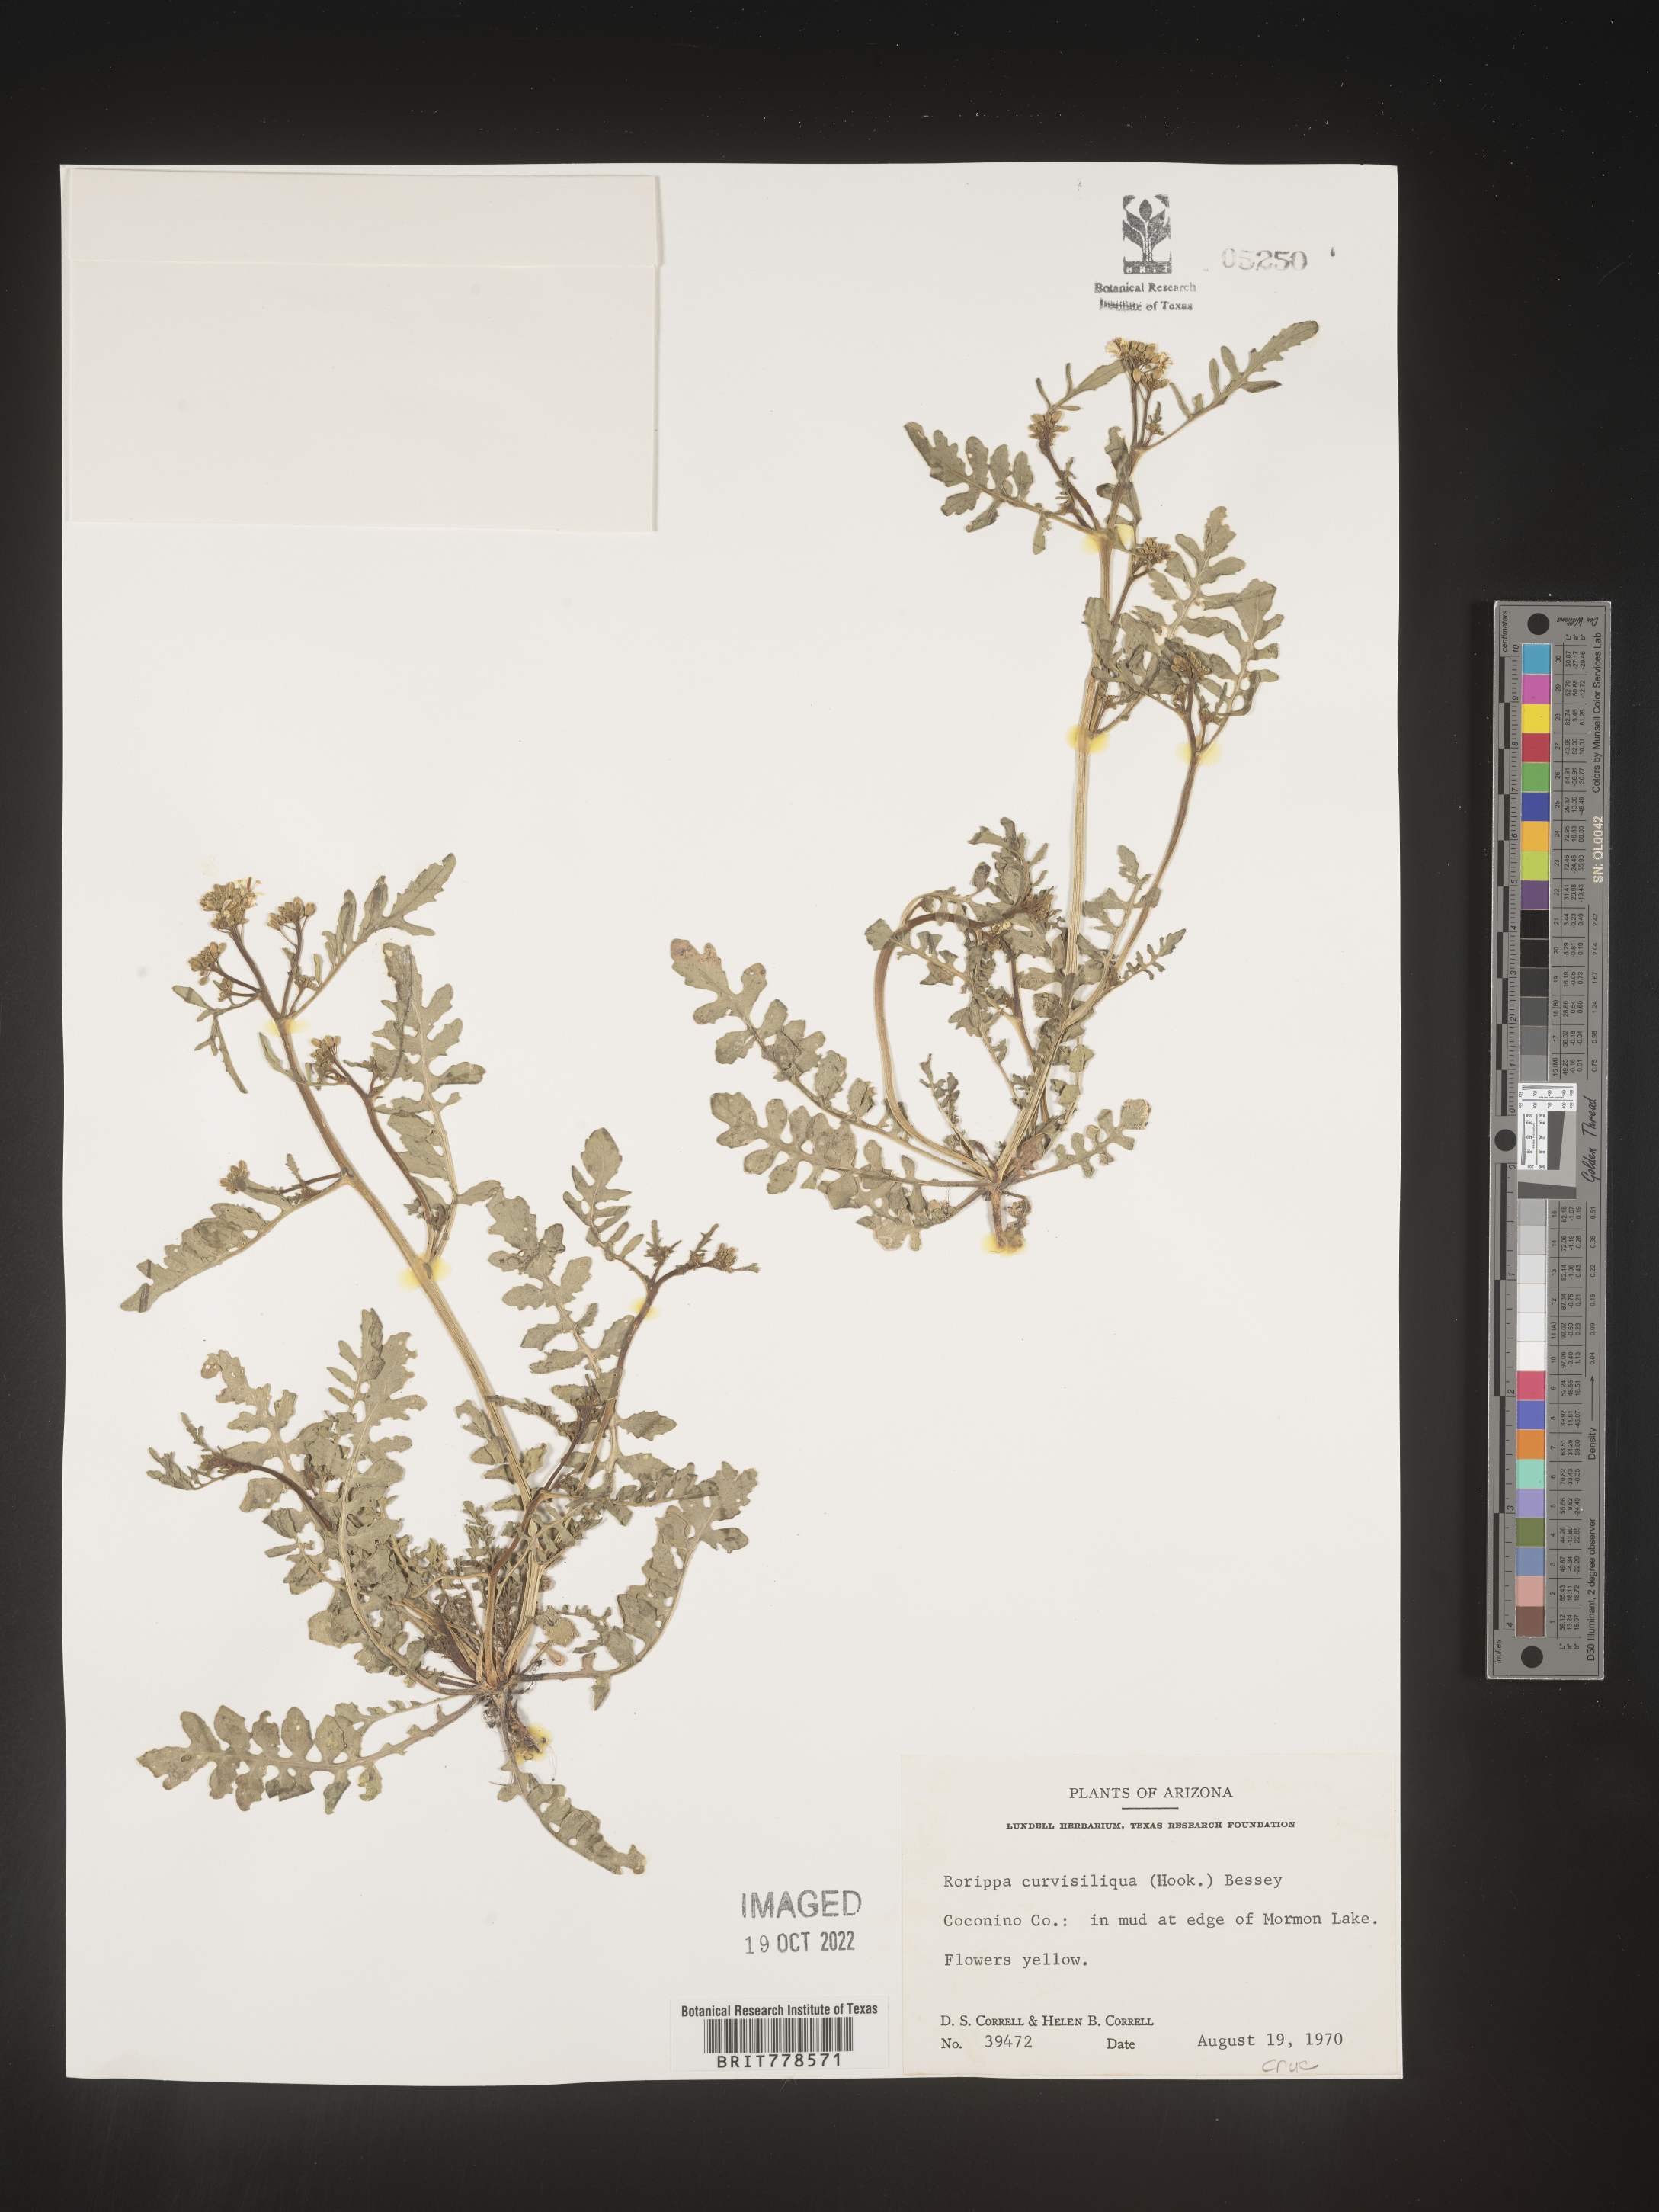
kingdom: Plantae
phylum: Tracheophyta
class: Magnoliopsida
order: Brassicales
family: Brassicaceae
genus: Rorippa
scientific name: Rorippa
